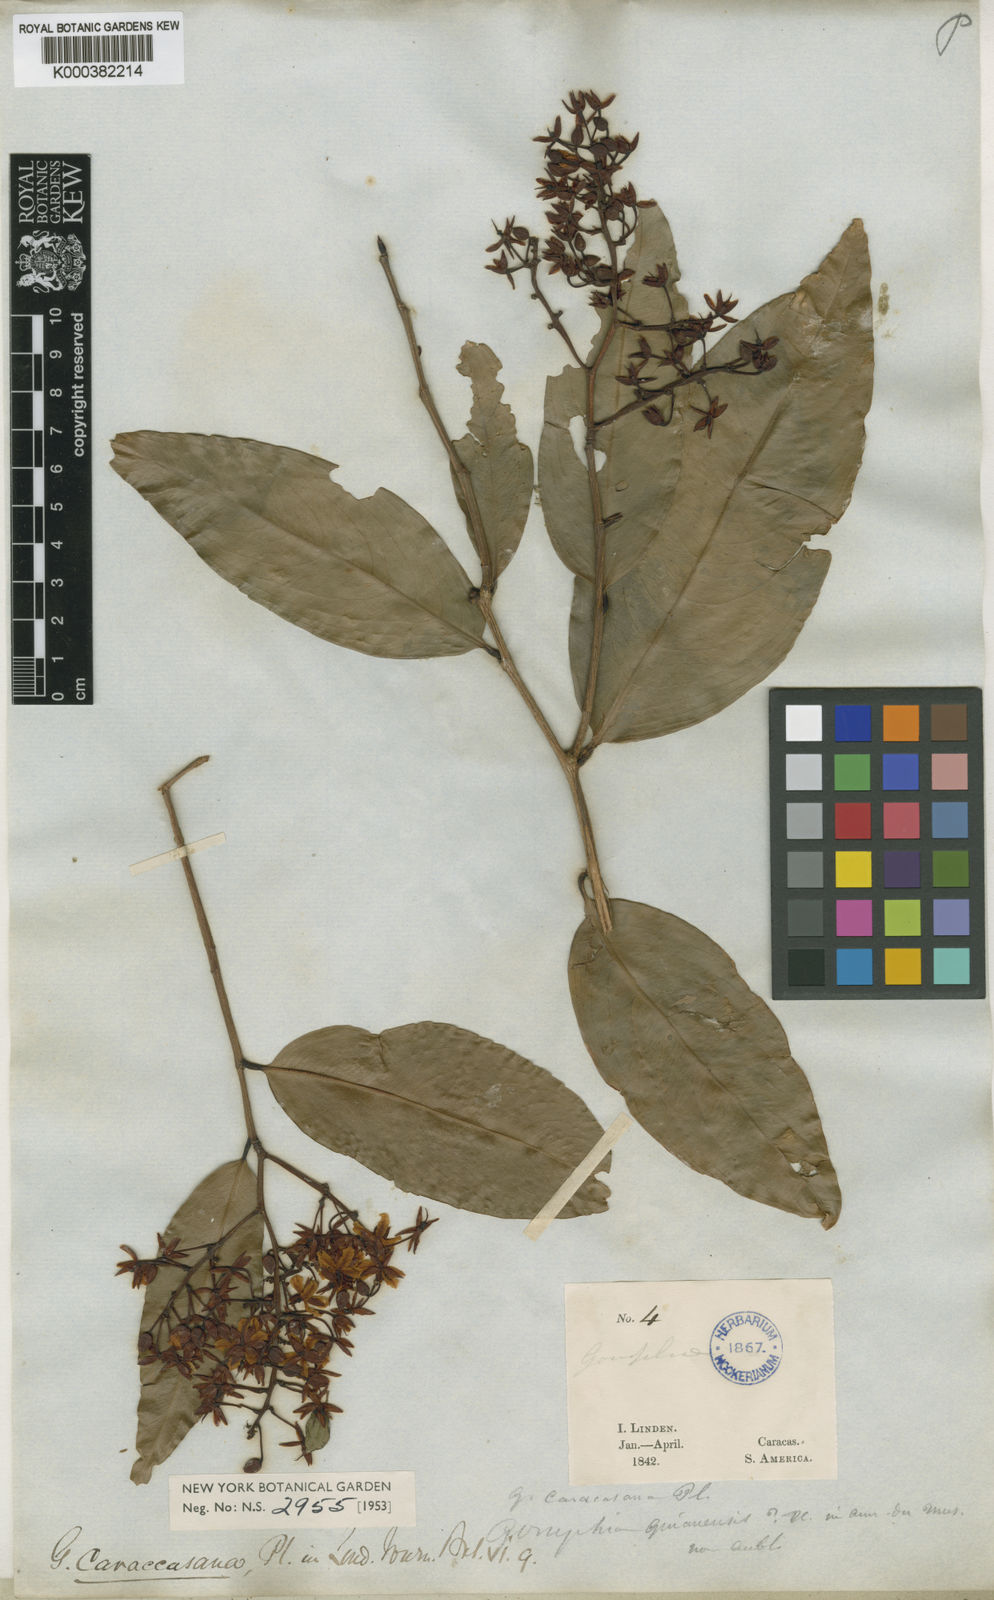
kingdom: Plantae
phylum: Tracheophyta
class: Magnoliopsida
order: Malpighiales
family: Ochnaceae
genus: Ouratea
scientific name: Ouratea caracasana
